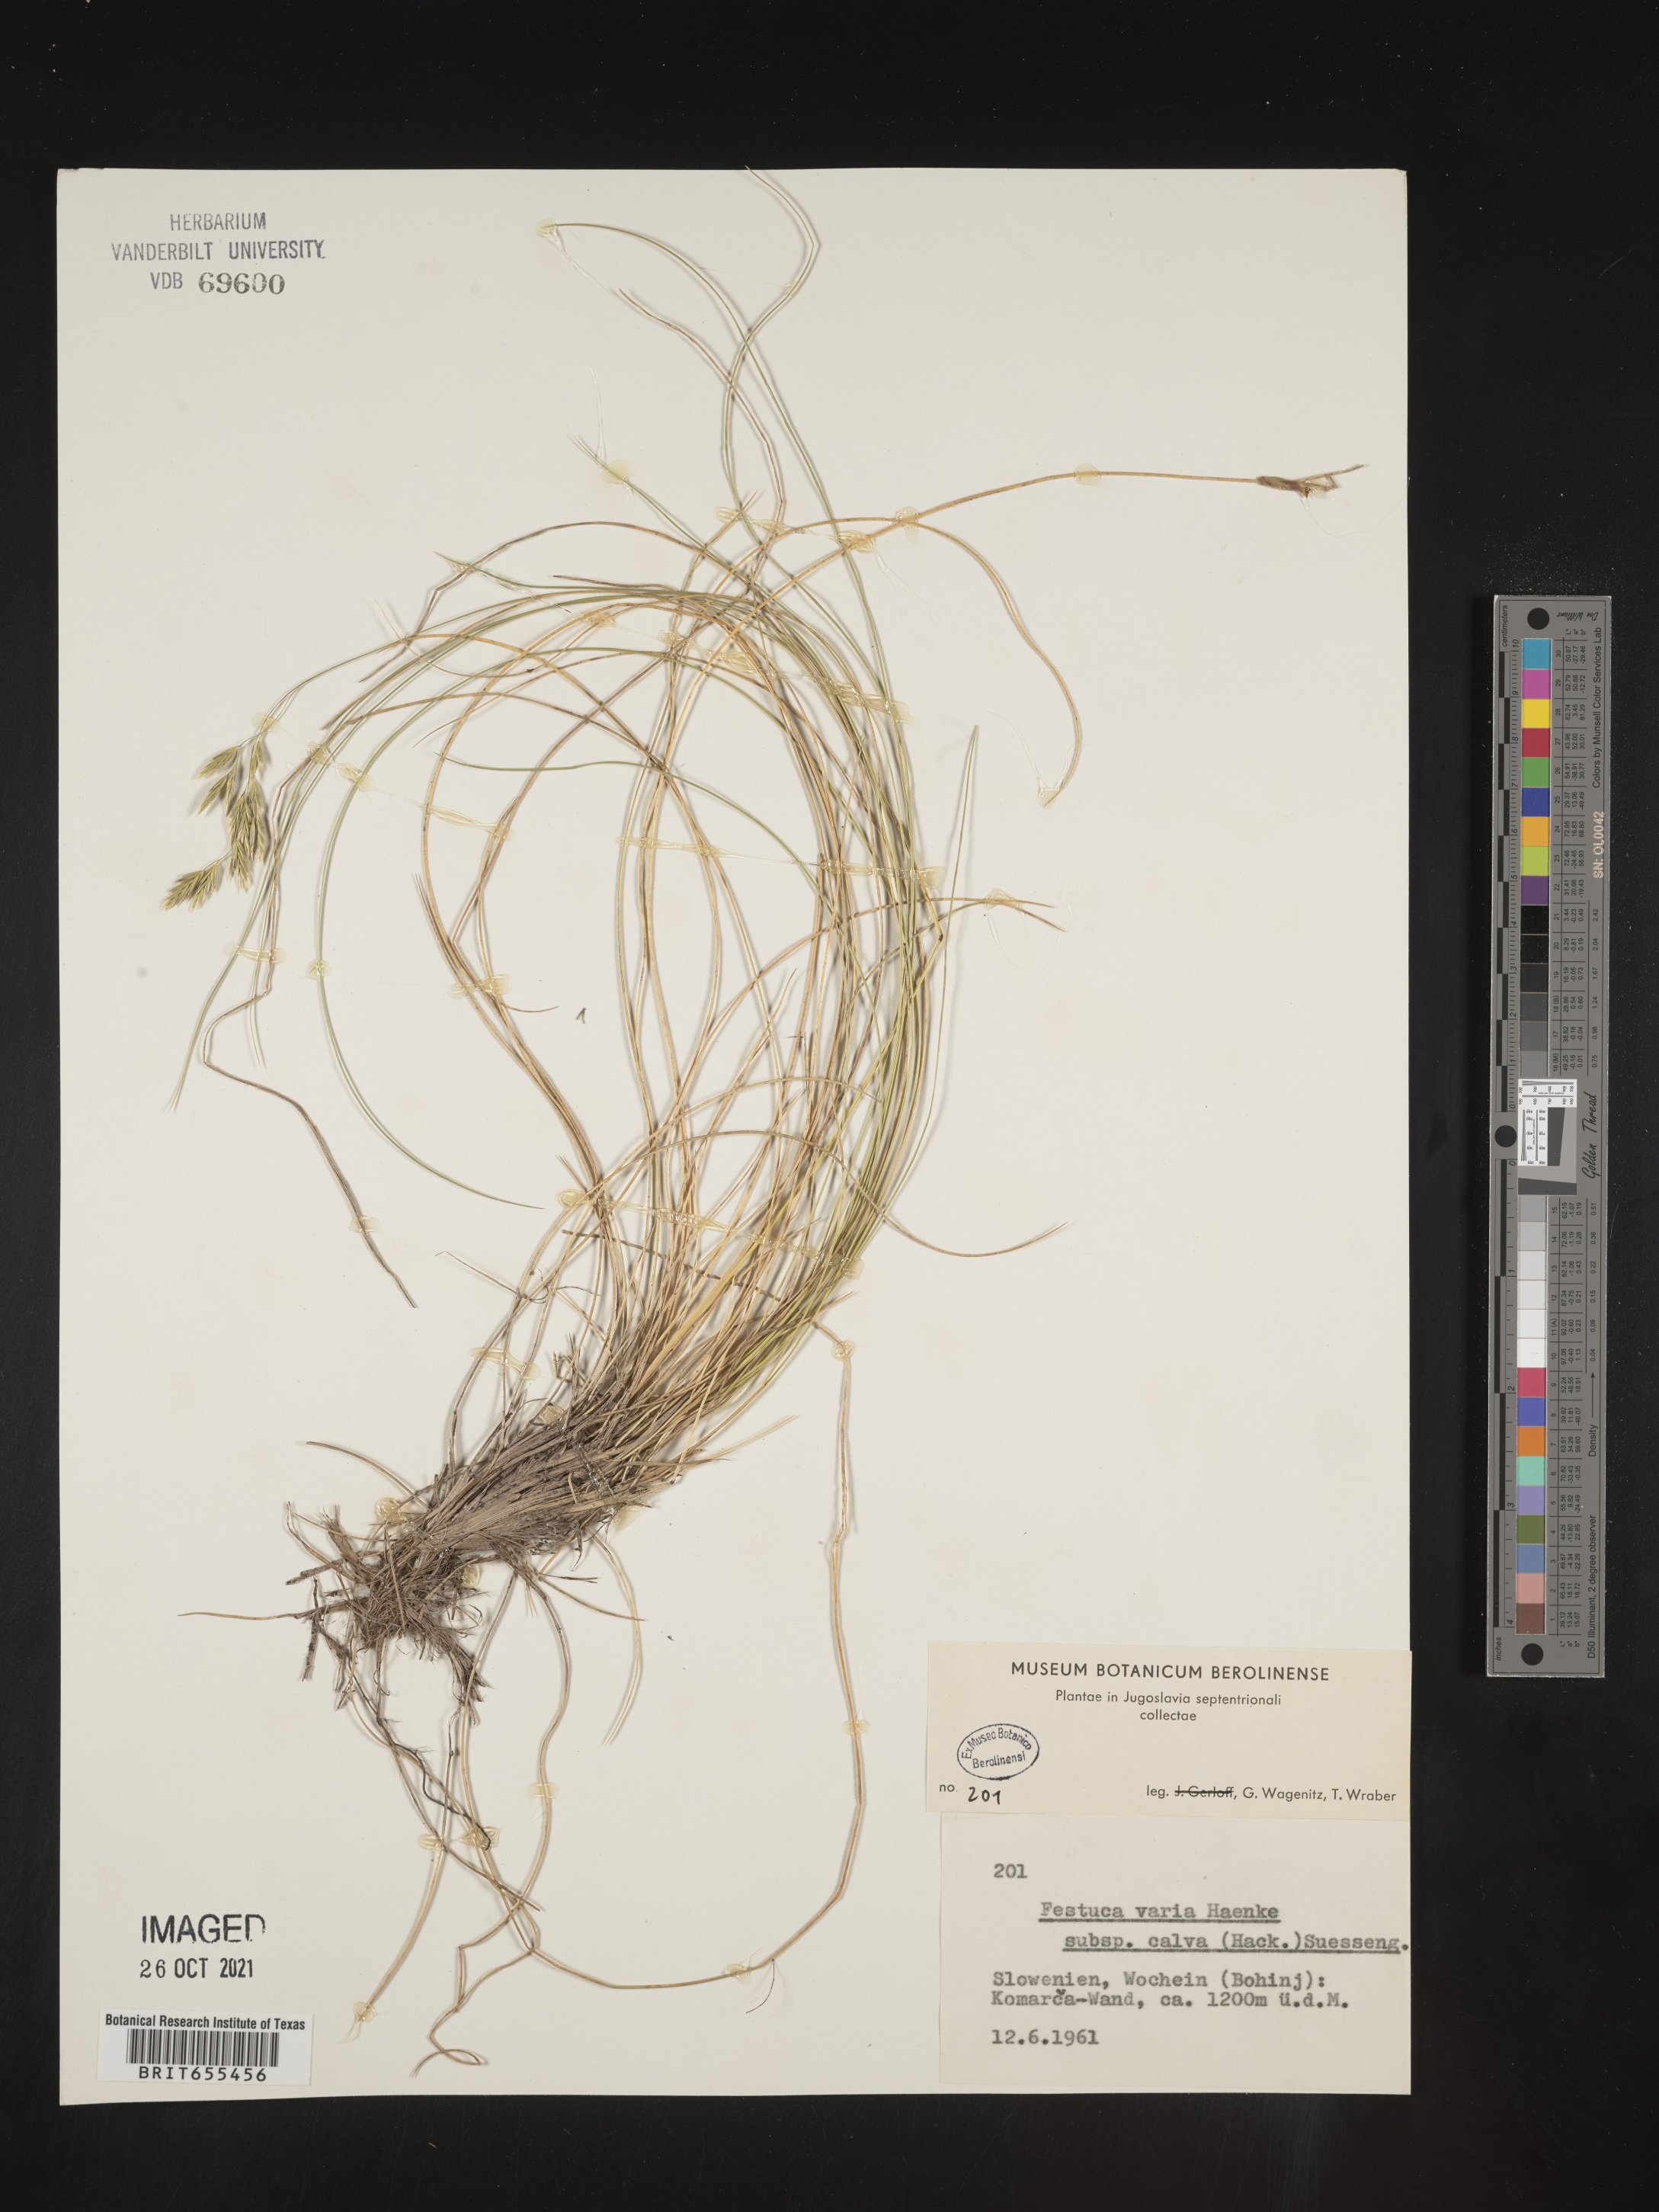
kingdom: Plantae
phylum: Tracheophyta
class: Liliopsida
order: Poales
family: Poaceae
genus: Festuca
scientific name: Festuca
